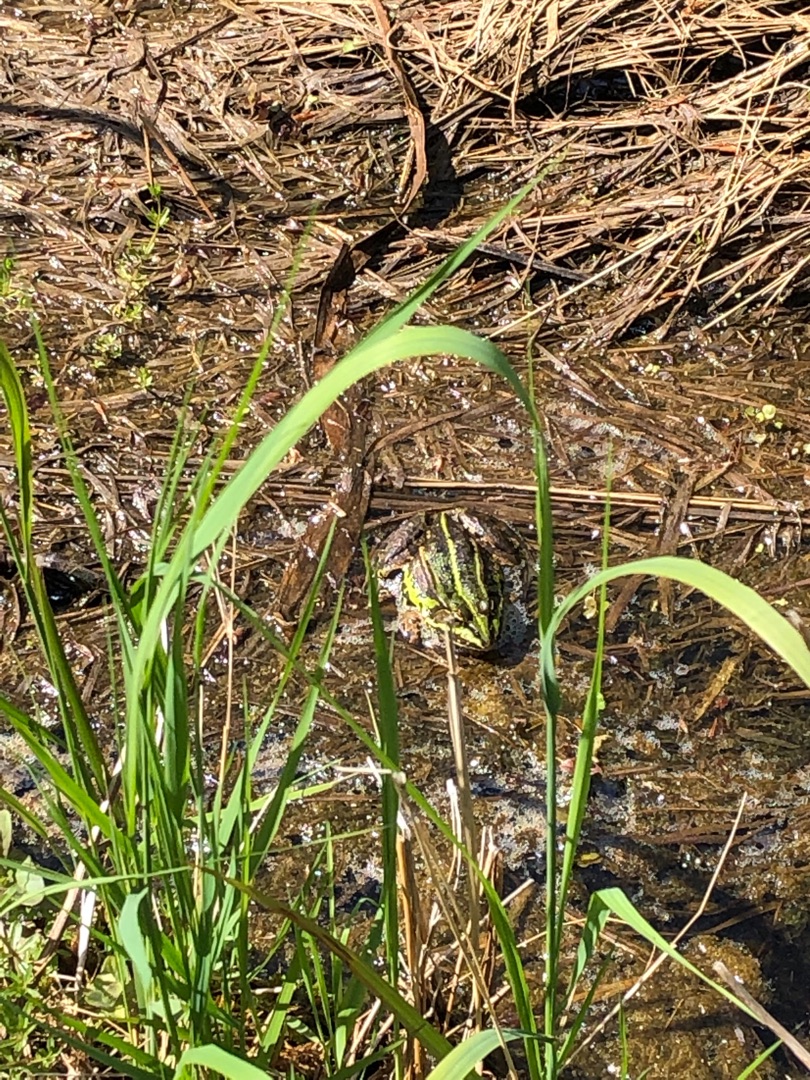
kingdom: Animalia
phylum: Chordata
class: Amphibia
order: Anura
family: Ranidae
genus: Pelophylax
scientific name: Pelophylax lessonae
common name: Grøn frø
